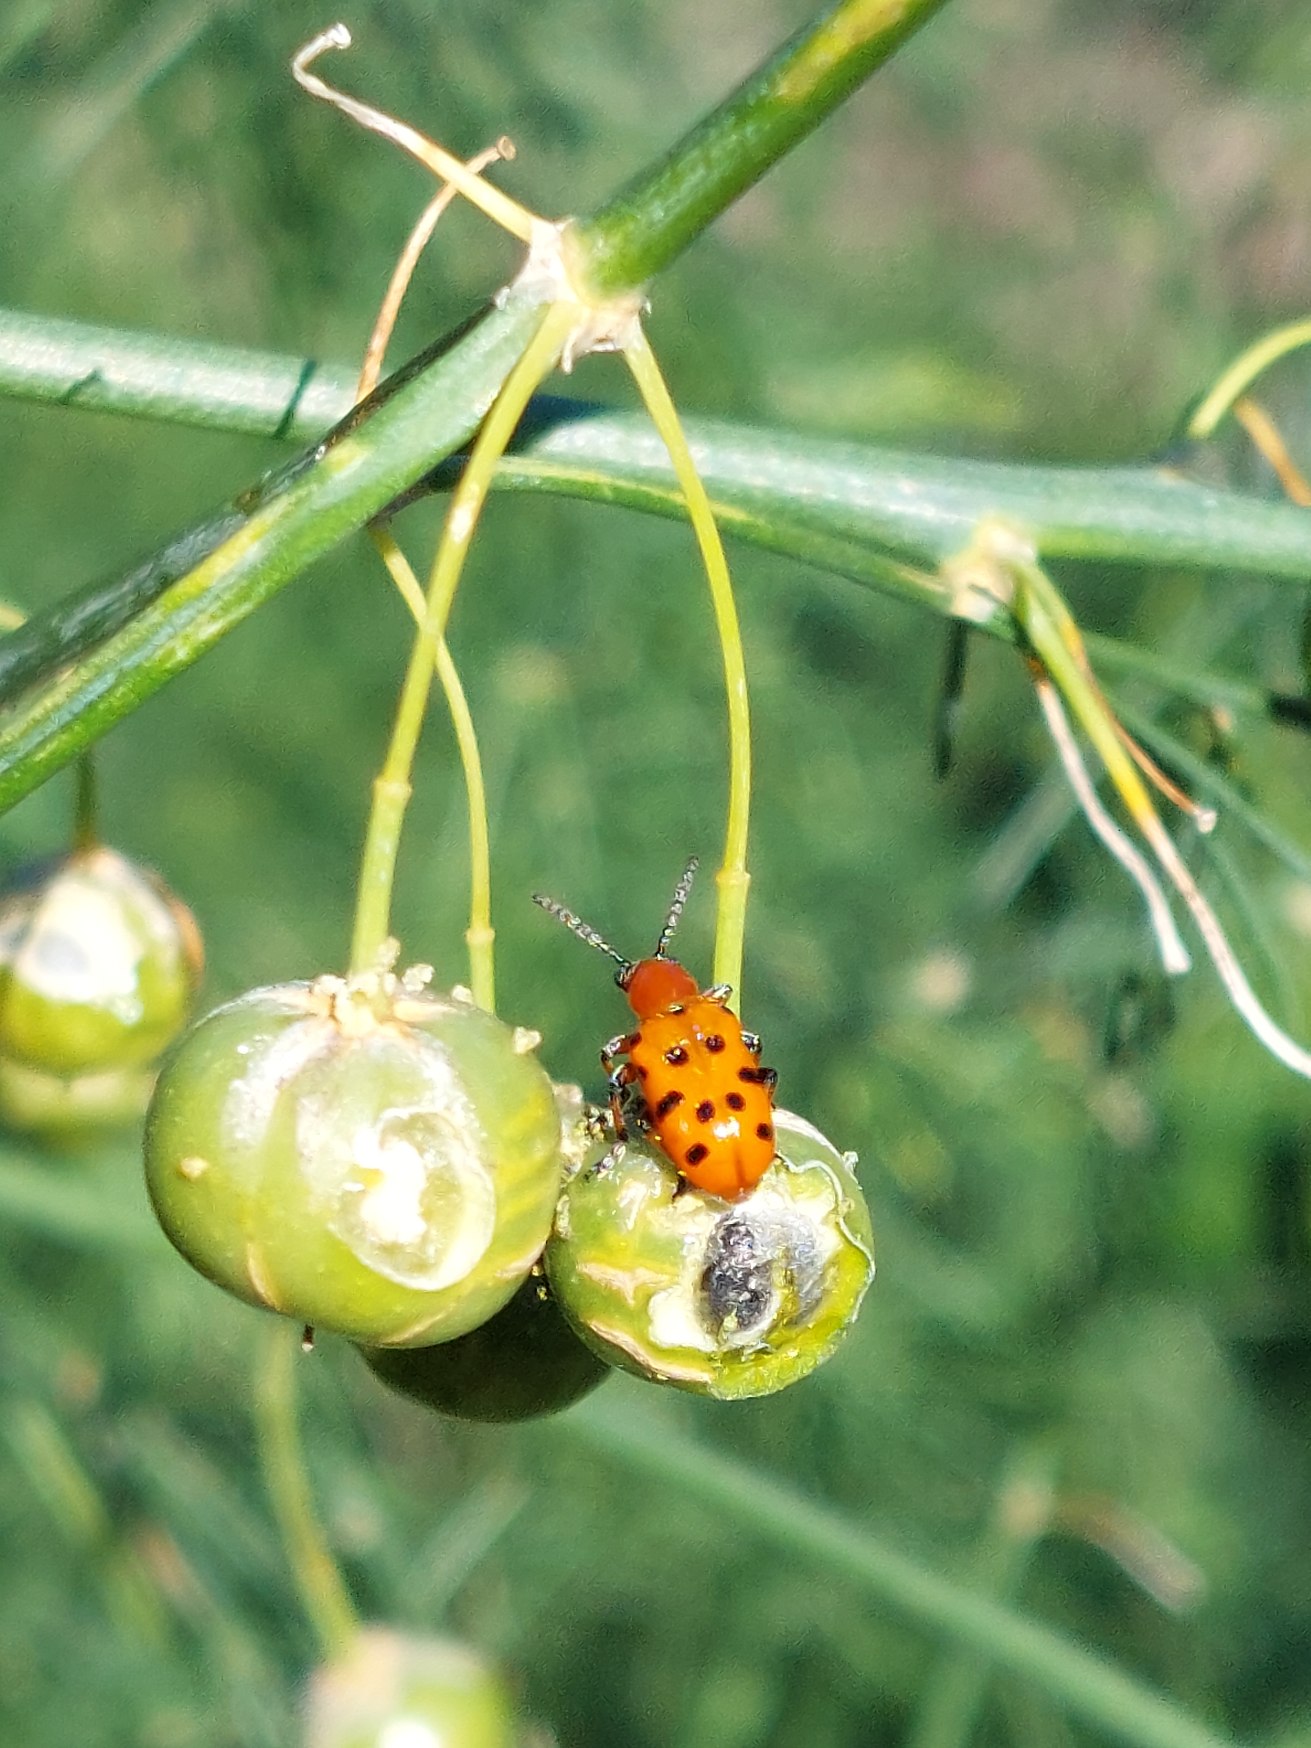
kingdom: Animalia
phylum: Arthropoda
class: Insecta
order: Coleoptera
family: Chrysomelidae
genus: Crioceris
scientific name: Crioceris duodecimpunctata
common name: Tolvplettet aspargesbille
